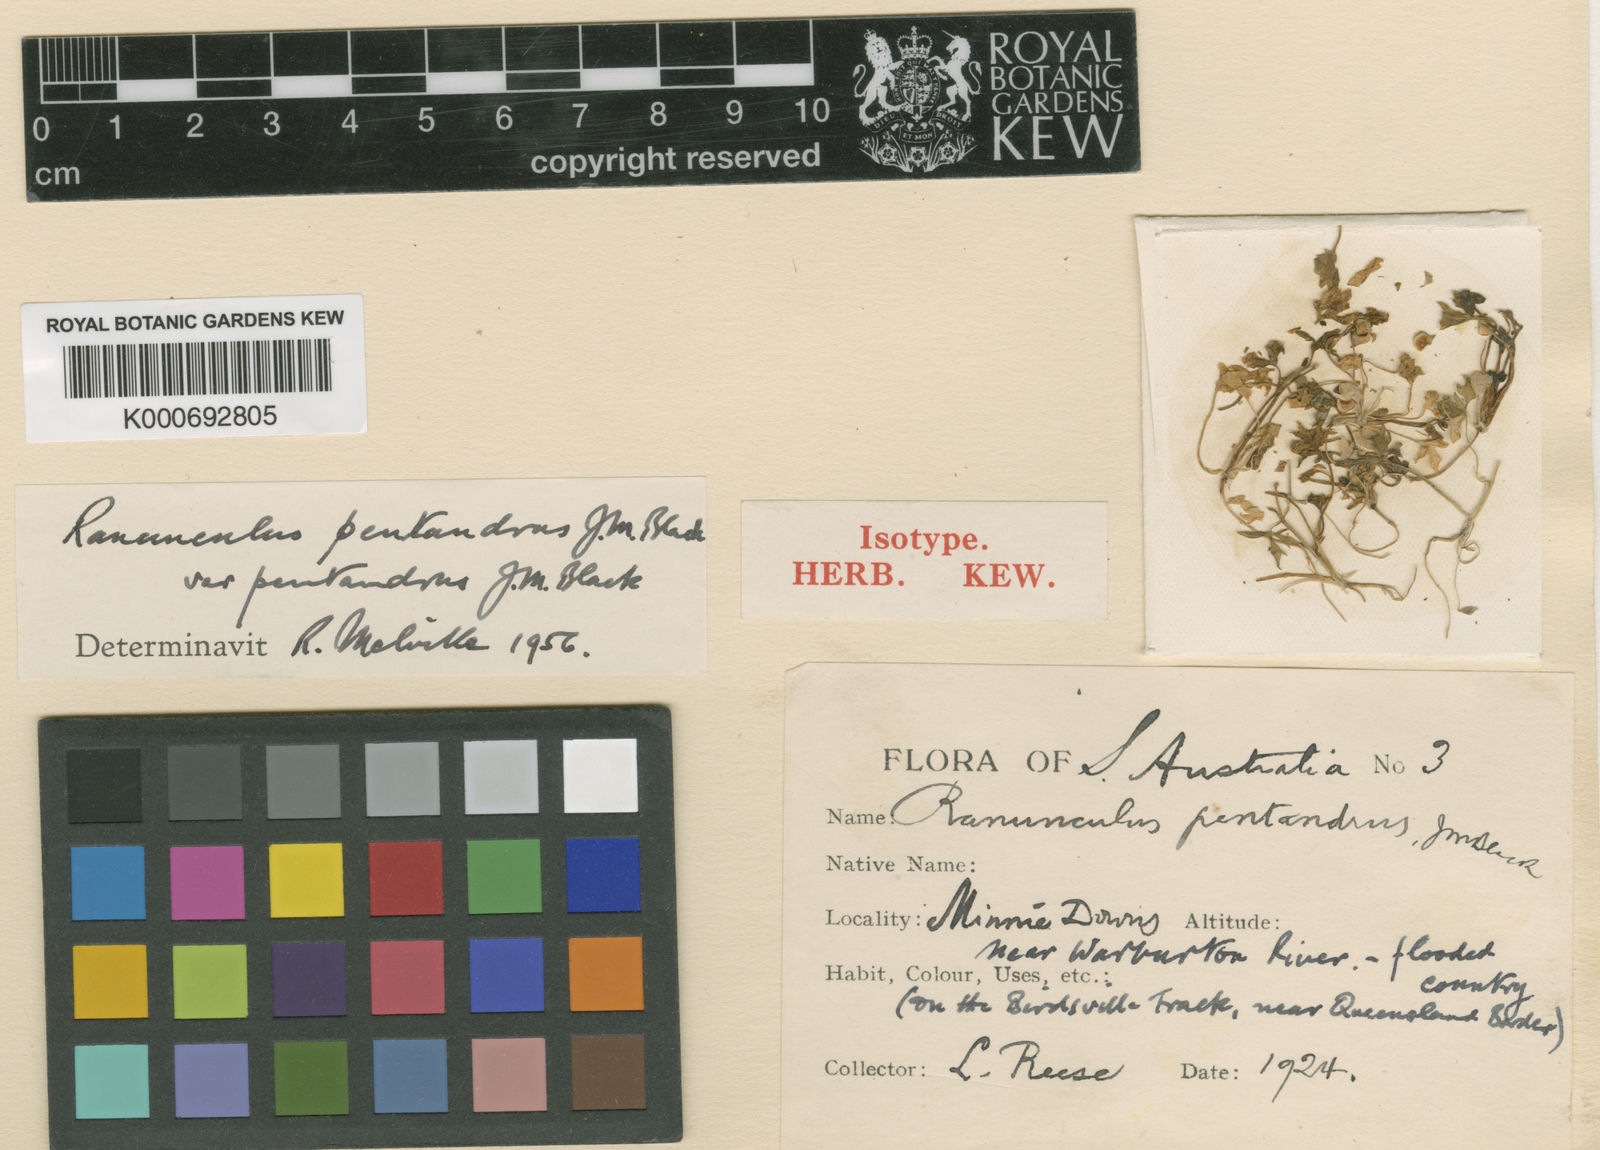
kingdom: Plantae
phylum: Tracheophyta
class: Magnoliopsida
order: Ranunculales
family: Ranunculaceae
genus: Ranunculus
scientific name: Ranunculus pentandrus
